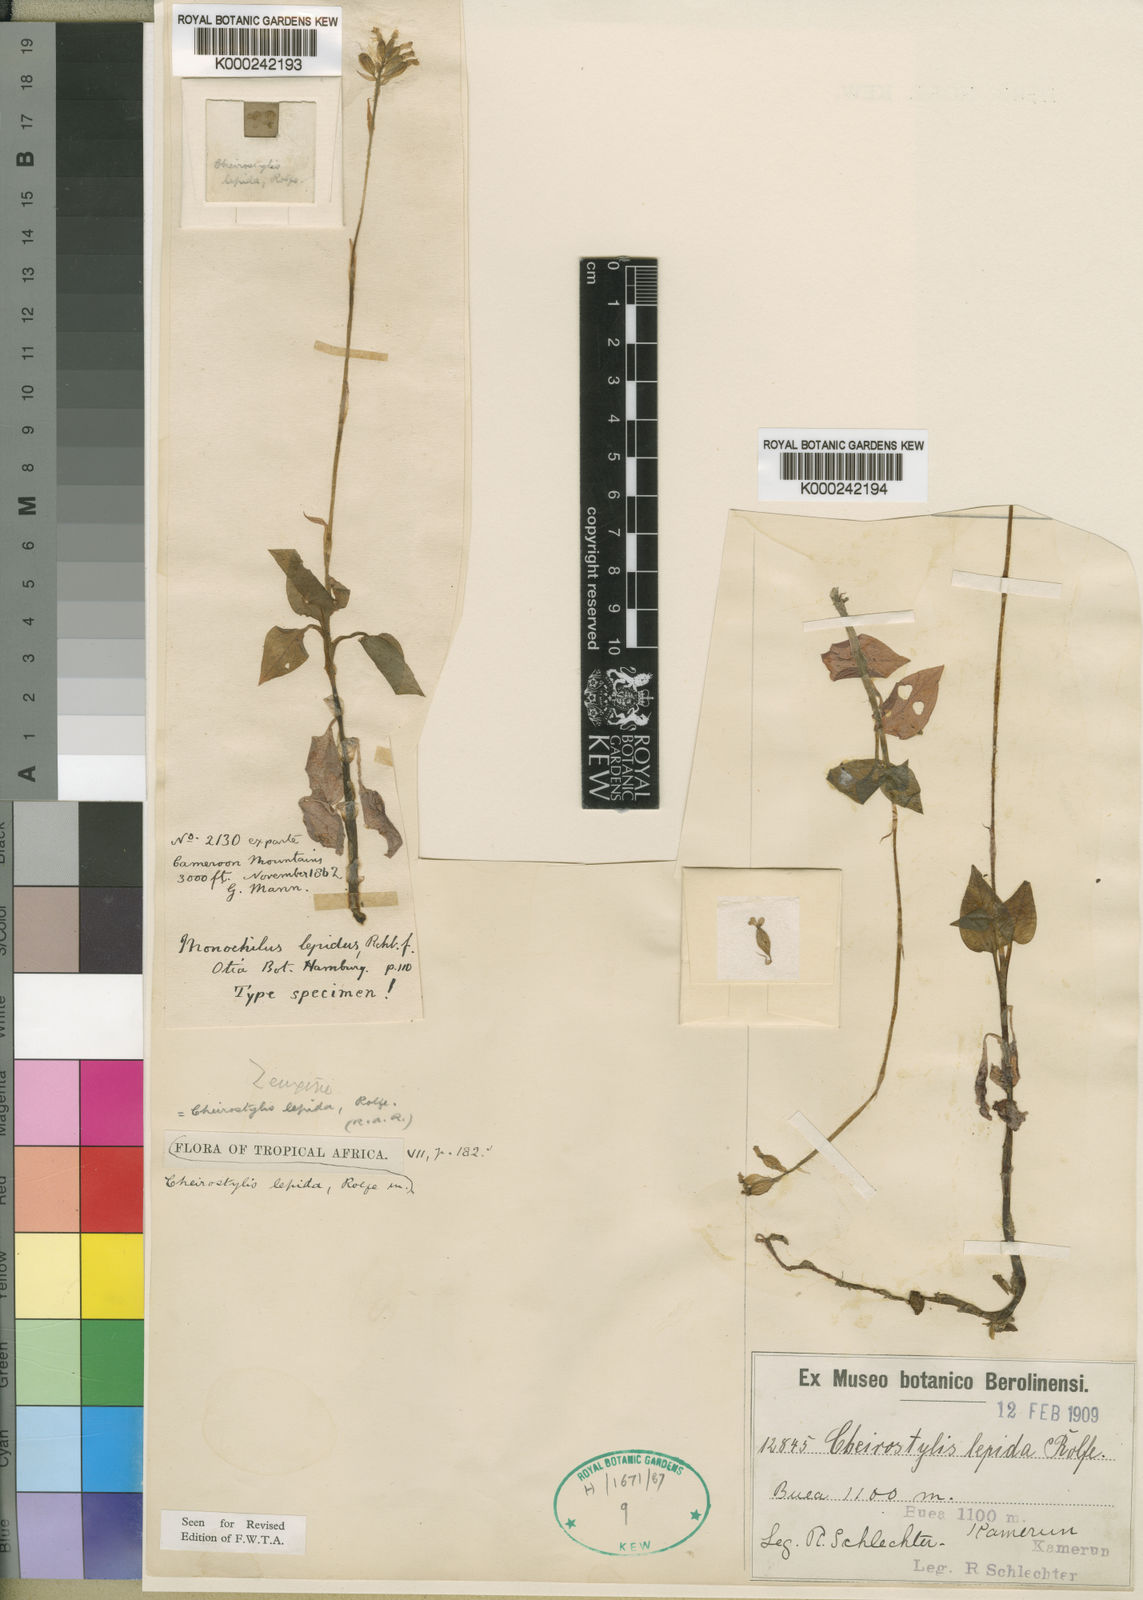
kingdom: Plantae
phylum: Tracheophyta
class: Liliopsida
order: Asparagales
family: Orchidaceae
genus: Cheirostylis
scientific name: Cheirostylis lepida
